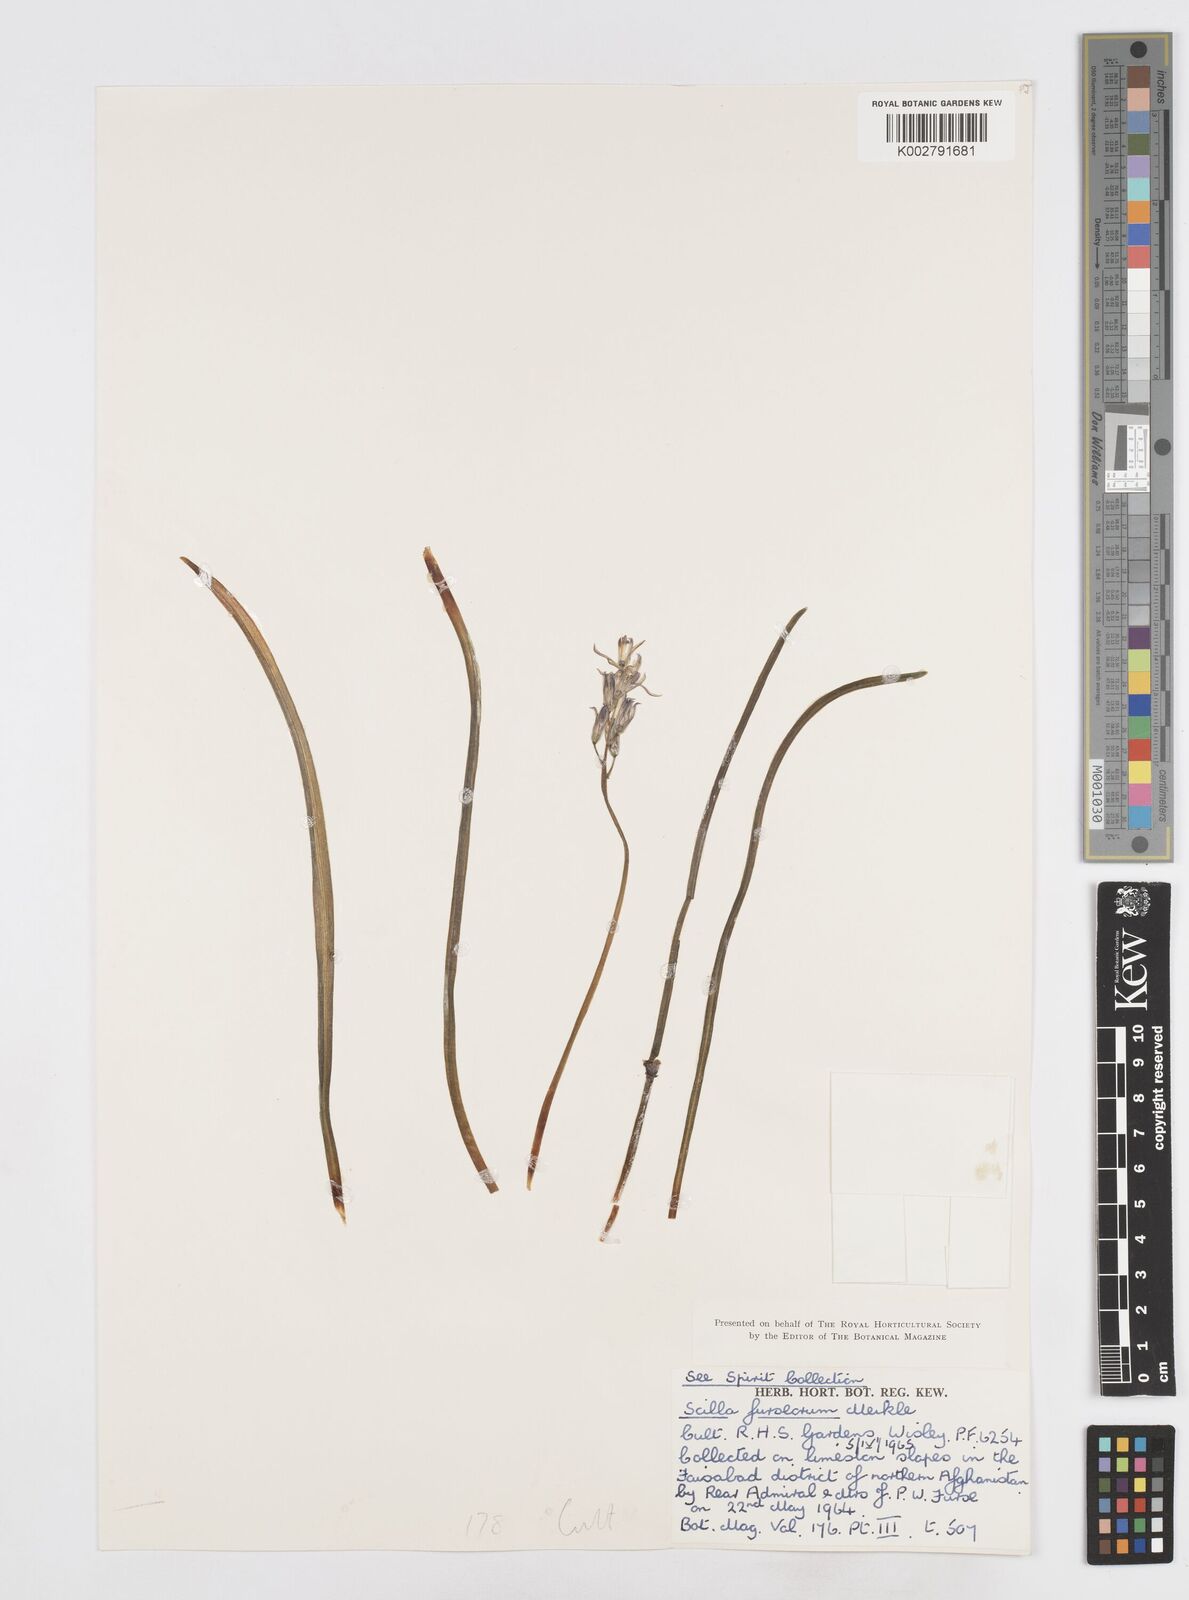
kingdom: Plantae
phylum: Tracheophyta
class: Liliopsida
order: Asparagales
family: Asparagaceae
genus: Fessia
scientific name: Fessia furseorum
